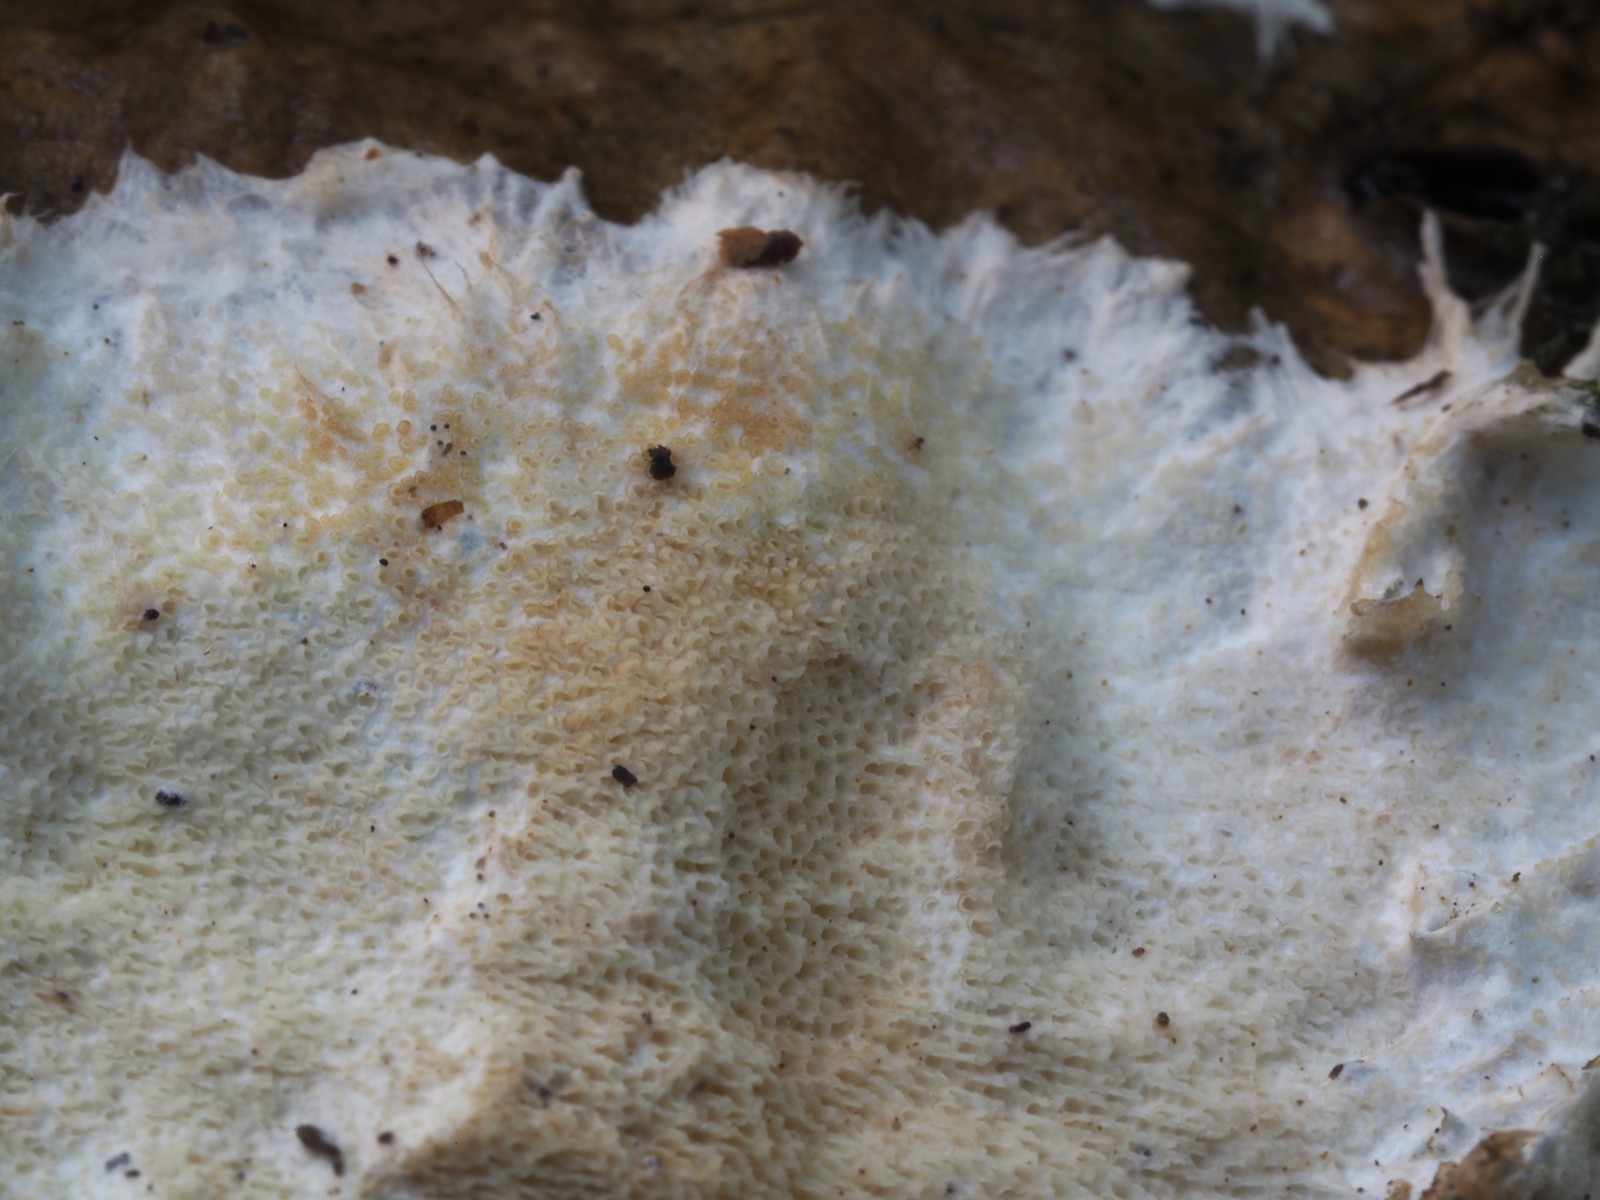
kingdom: Fungi
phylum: Basidiomycota
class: Agaricomycetes
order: Agaricales
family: Porotheleaceae
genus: Porotheleum
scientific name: Porotheleum fimbriatum
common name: poreskål
